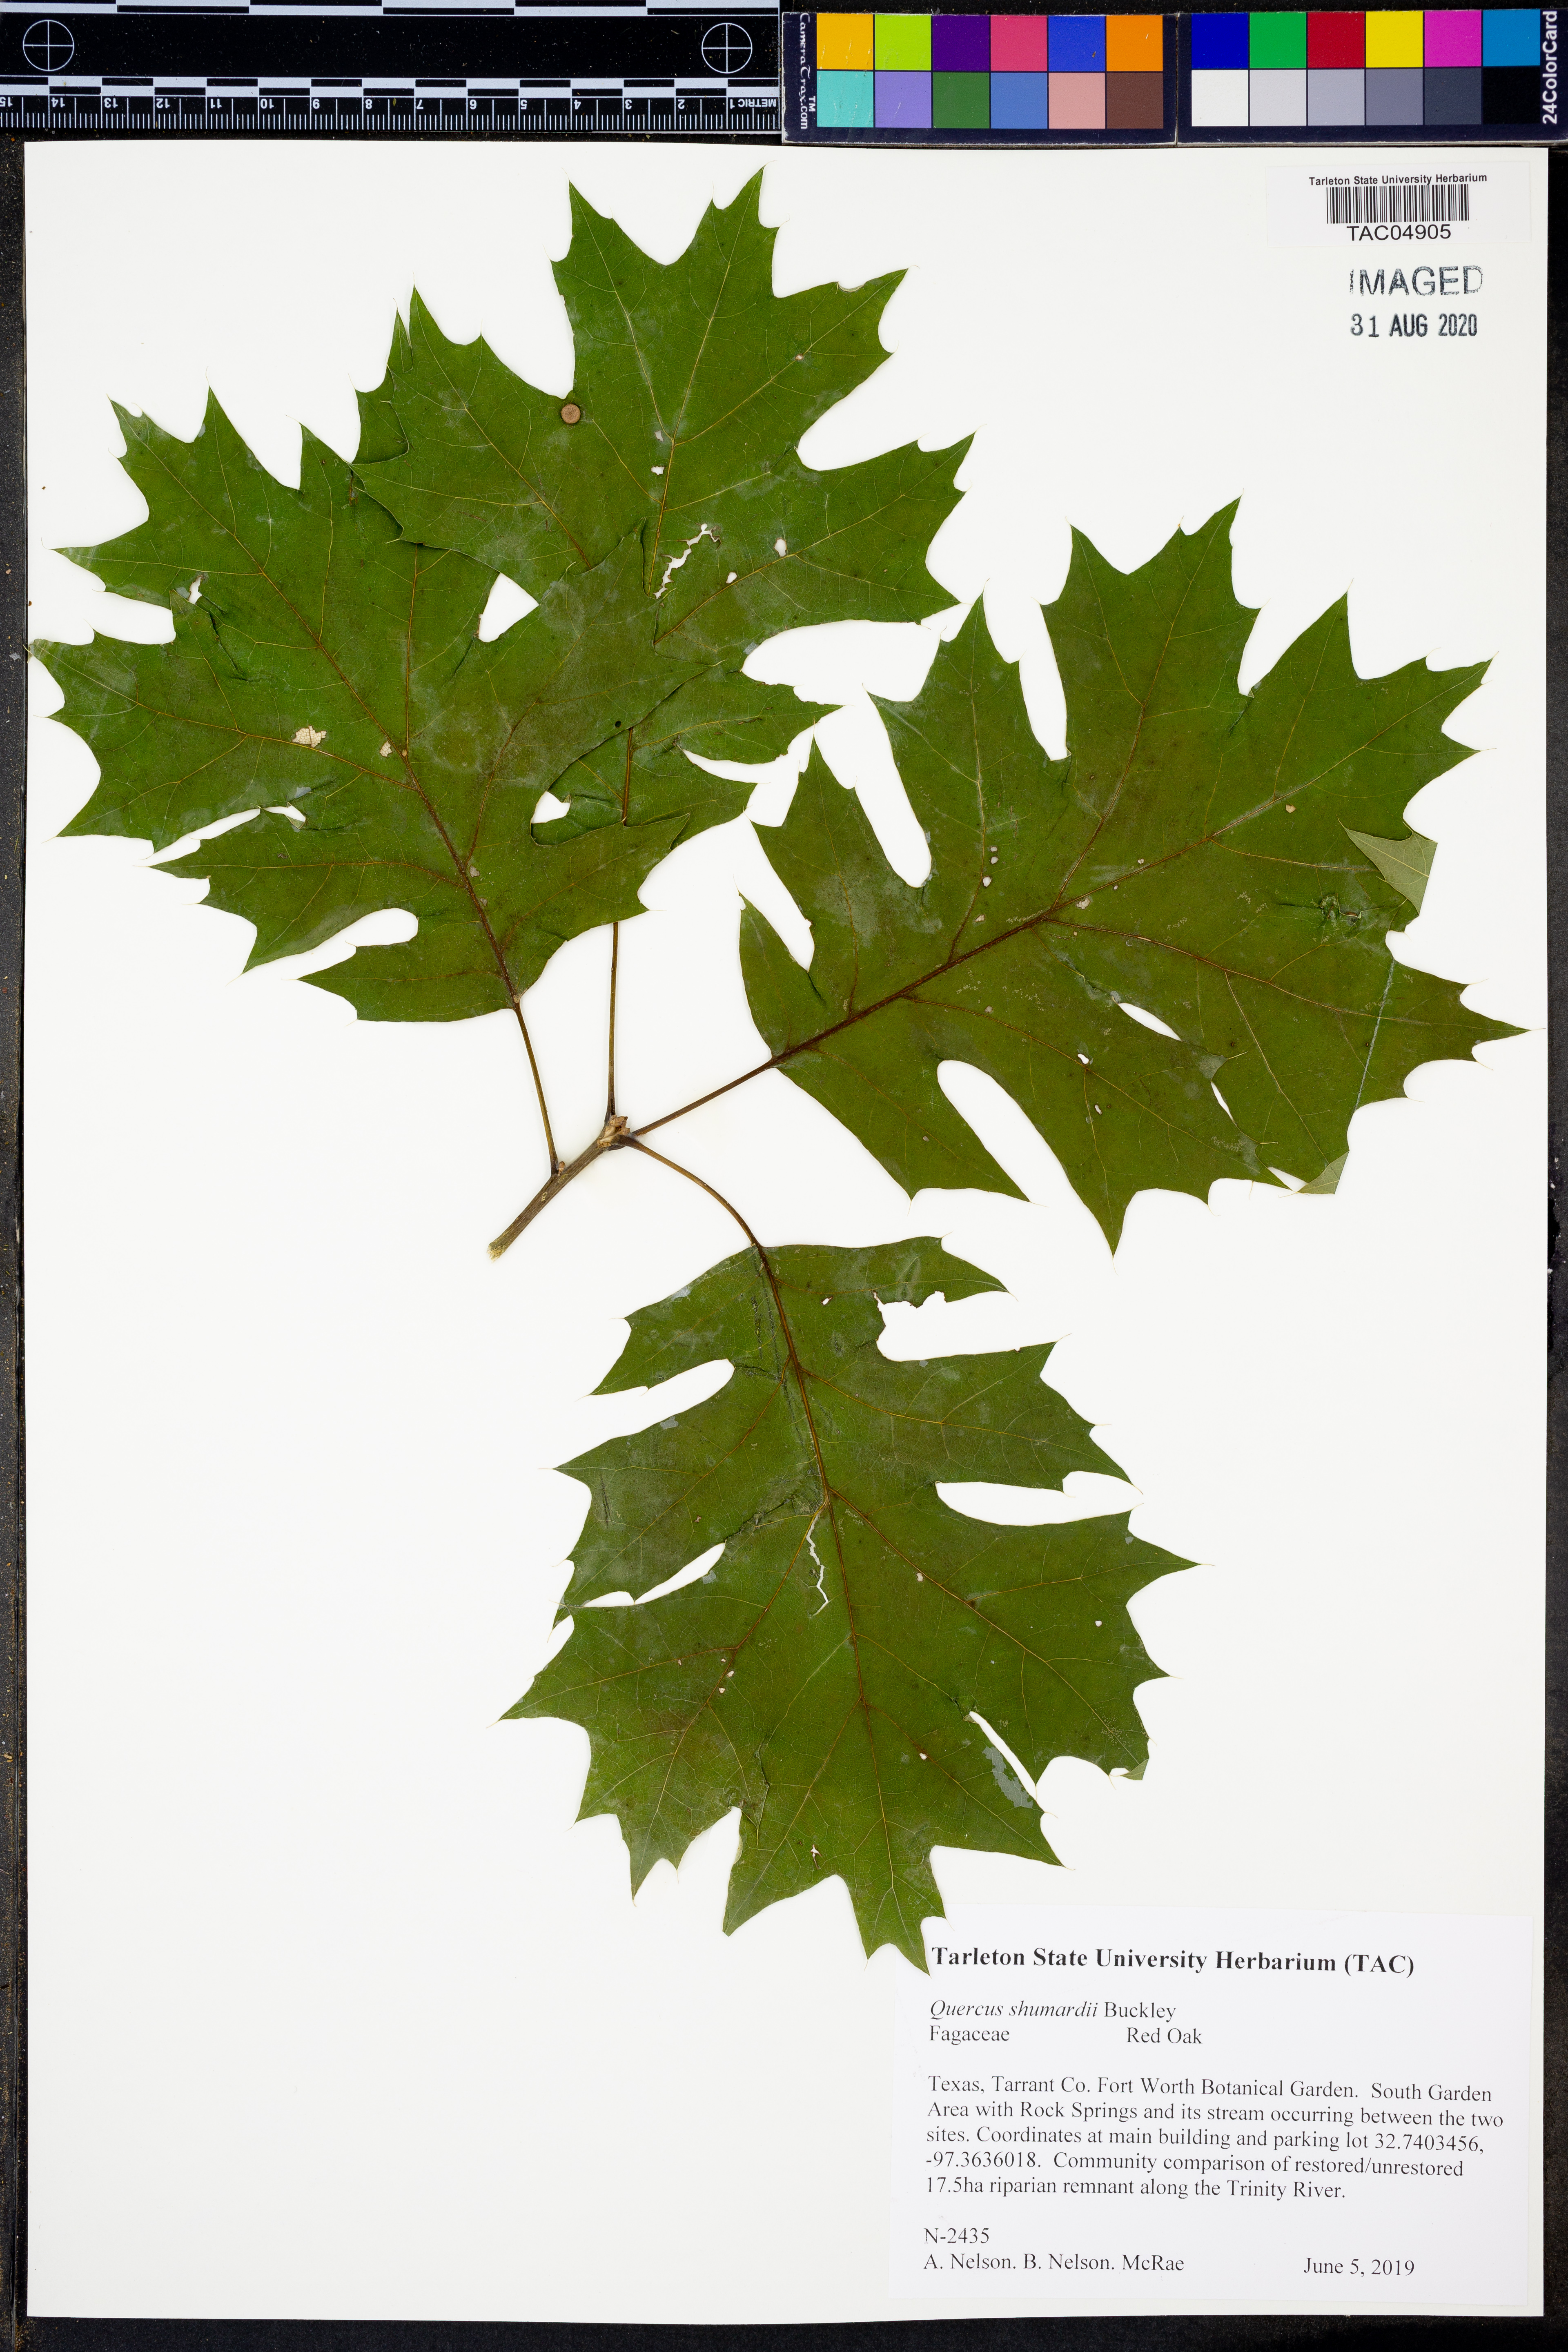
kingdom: Plantae
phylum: Tracheophyta
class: Magnoliopsida
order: Fagales
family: Fagaceae
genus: Quercus
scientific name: Quercus shumardii
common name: Shumard oak
